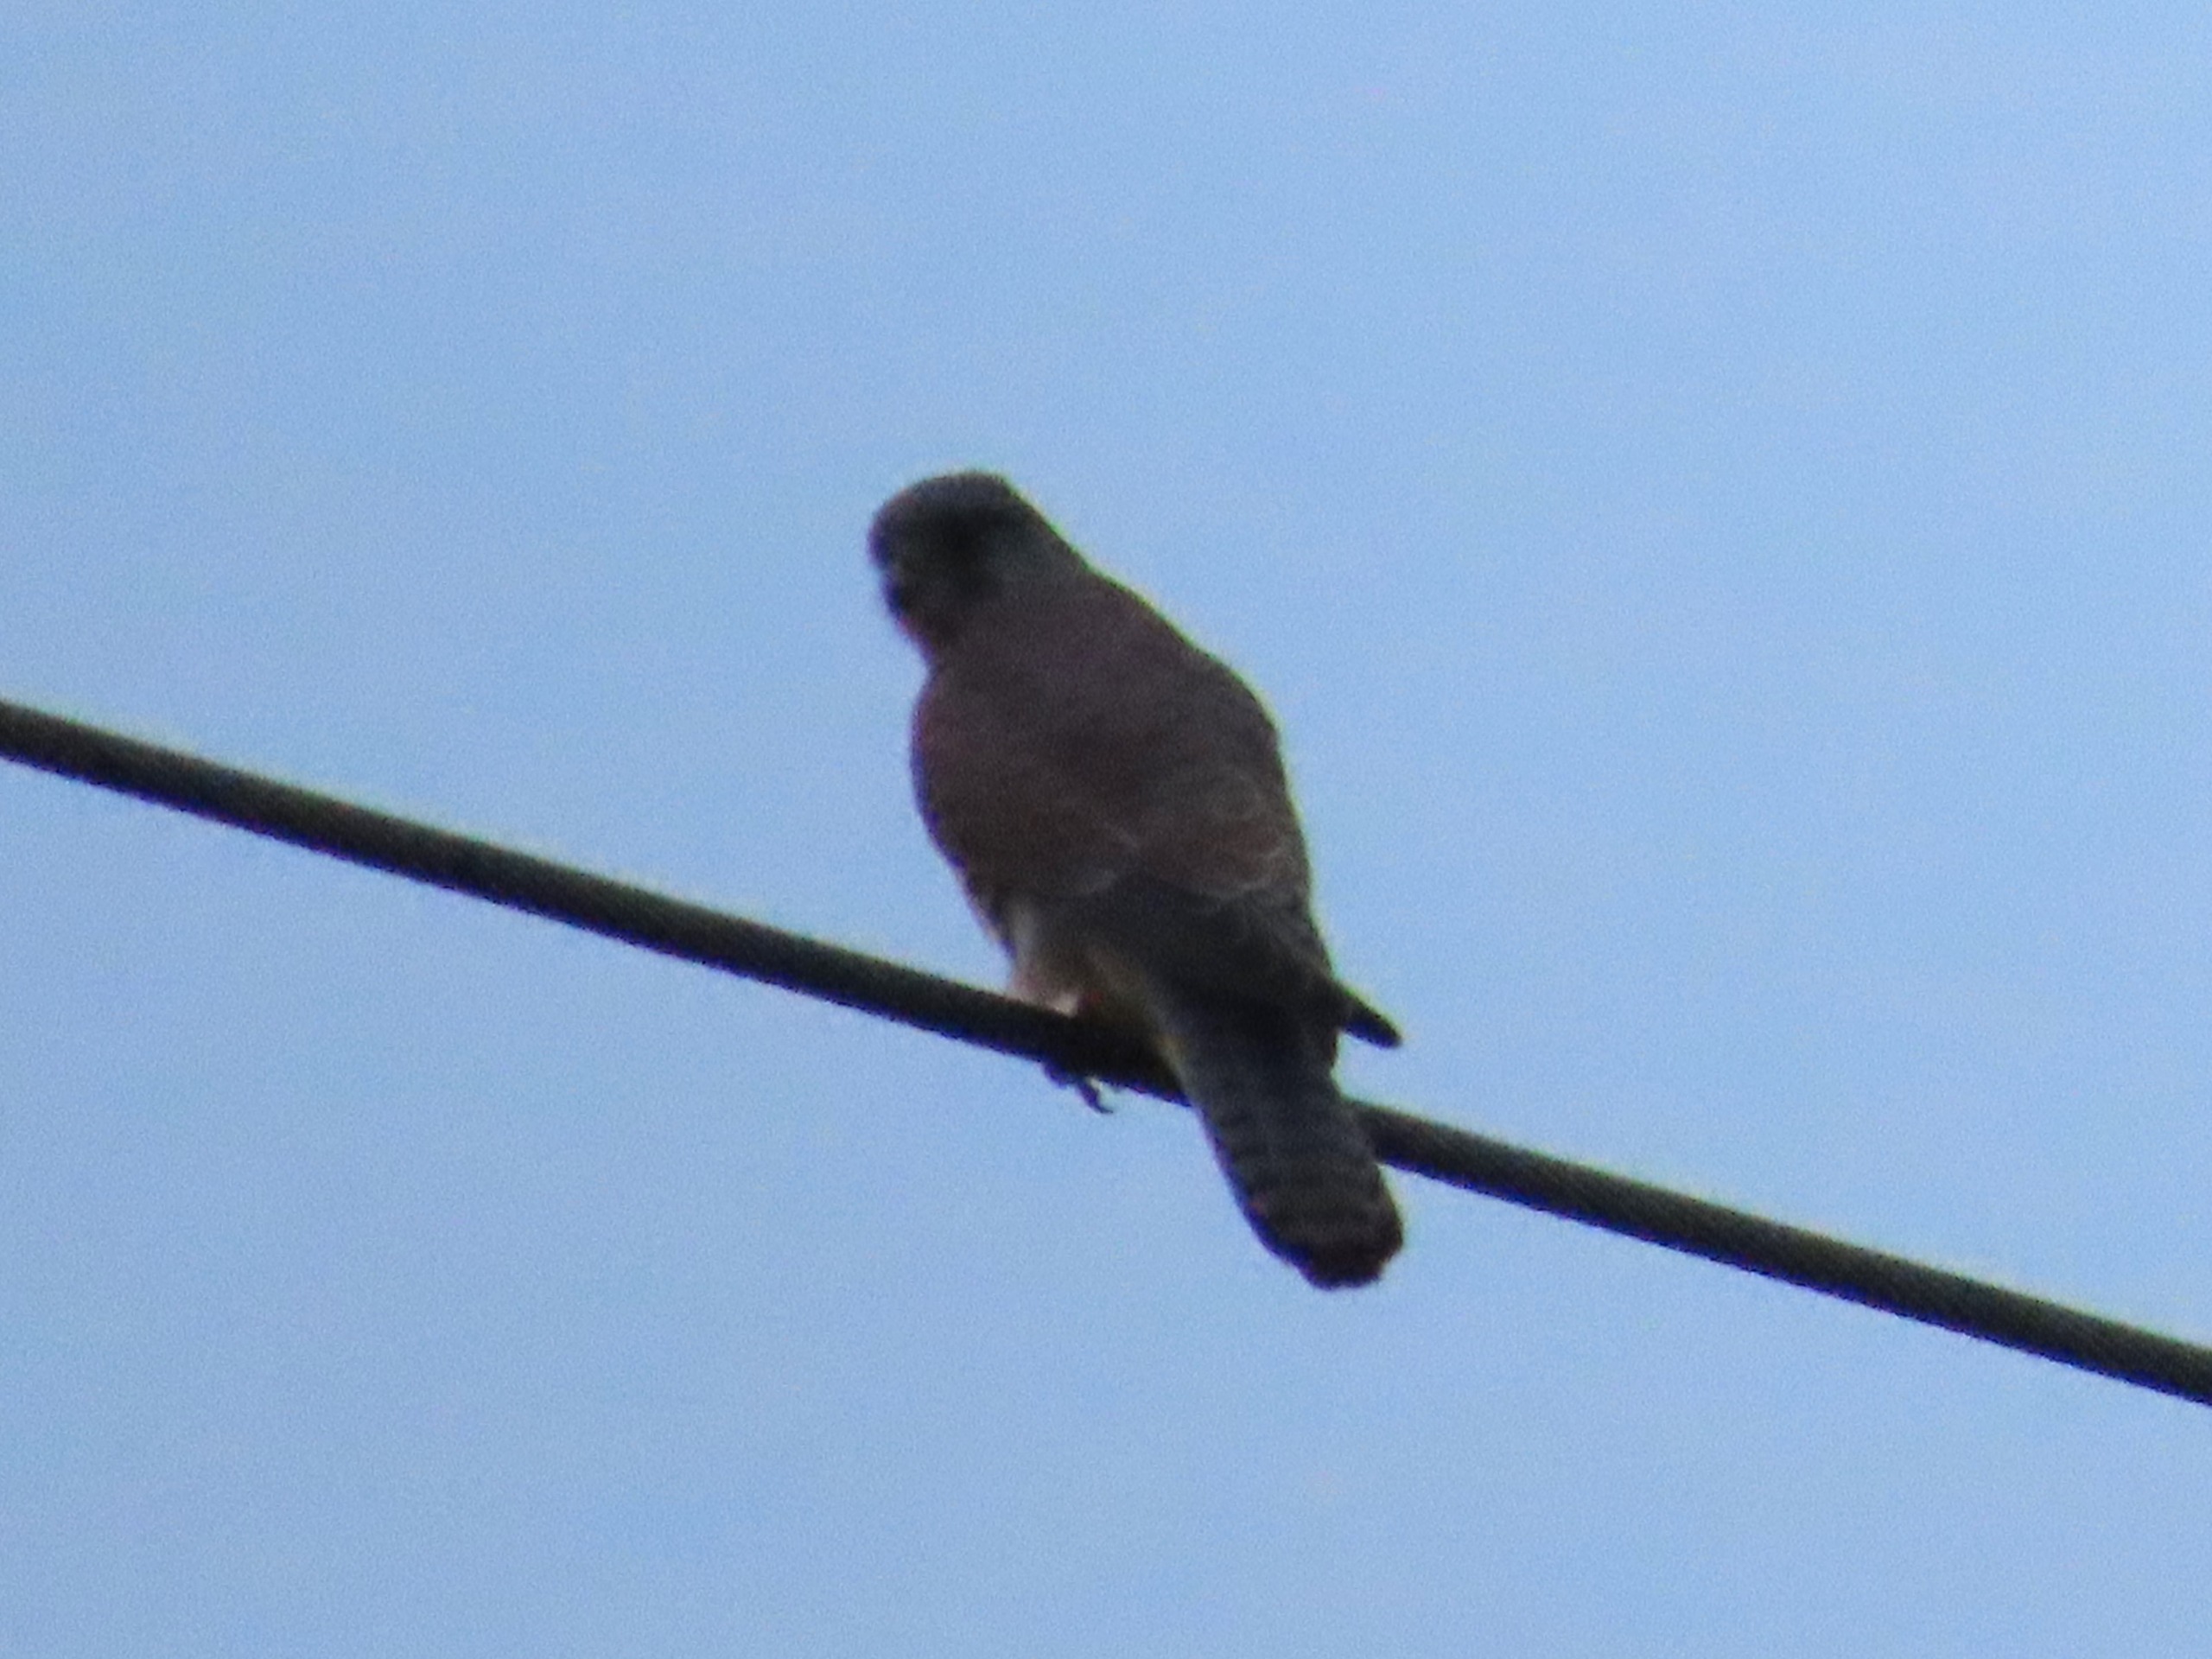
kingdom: Animalia
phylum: Chordata
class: Aves
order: Falconiformes
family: Falconidae
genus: Falco
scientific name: Falco tinnunculus
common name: Tårnfalk
